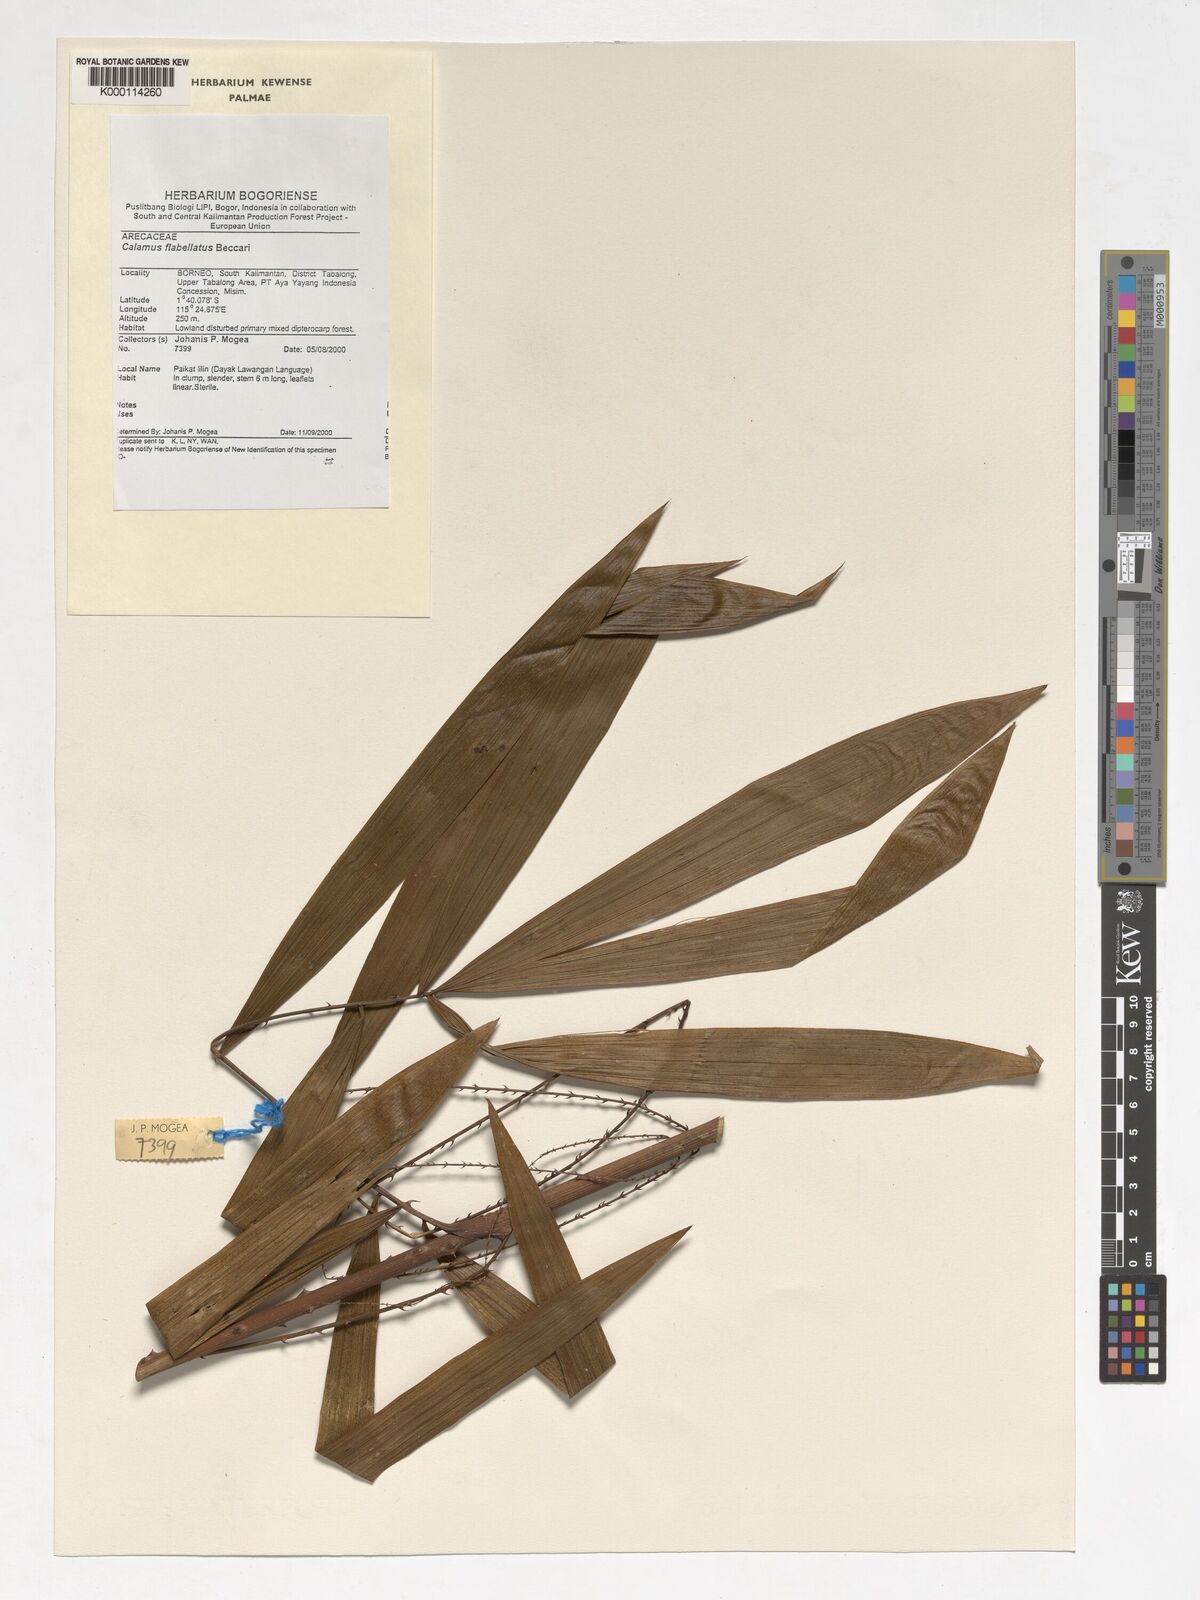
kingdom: Plantae
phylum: Tracheophyta
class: Liliopsida
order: Arecales
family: Arecaceae
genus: Calamus
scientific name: Calamus flabellatus
